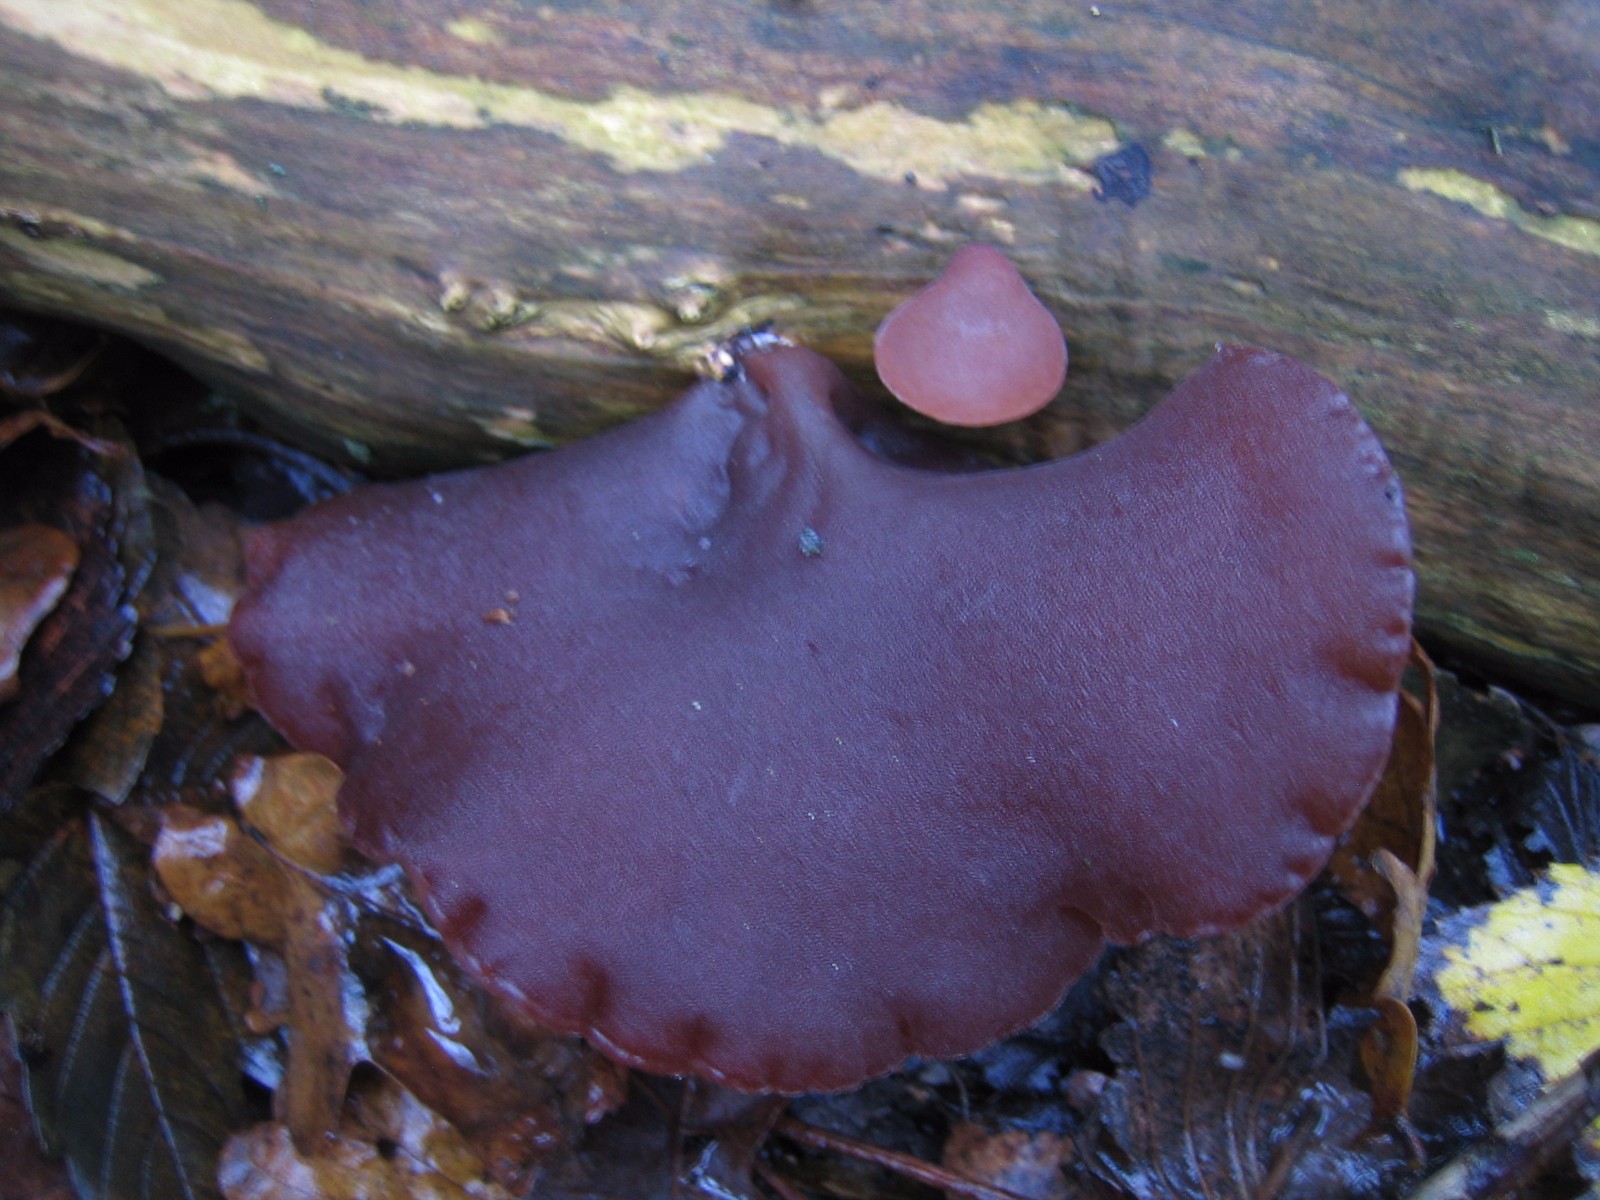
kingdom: Fungi
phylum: Basidiomycota
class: Agaricomycetes
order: Auriculariales
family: Auriculariaceae
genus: Auricularia
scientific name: Auricularia auricula-judae
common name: almindelig judasøre
